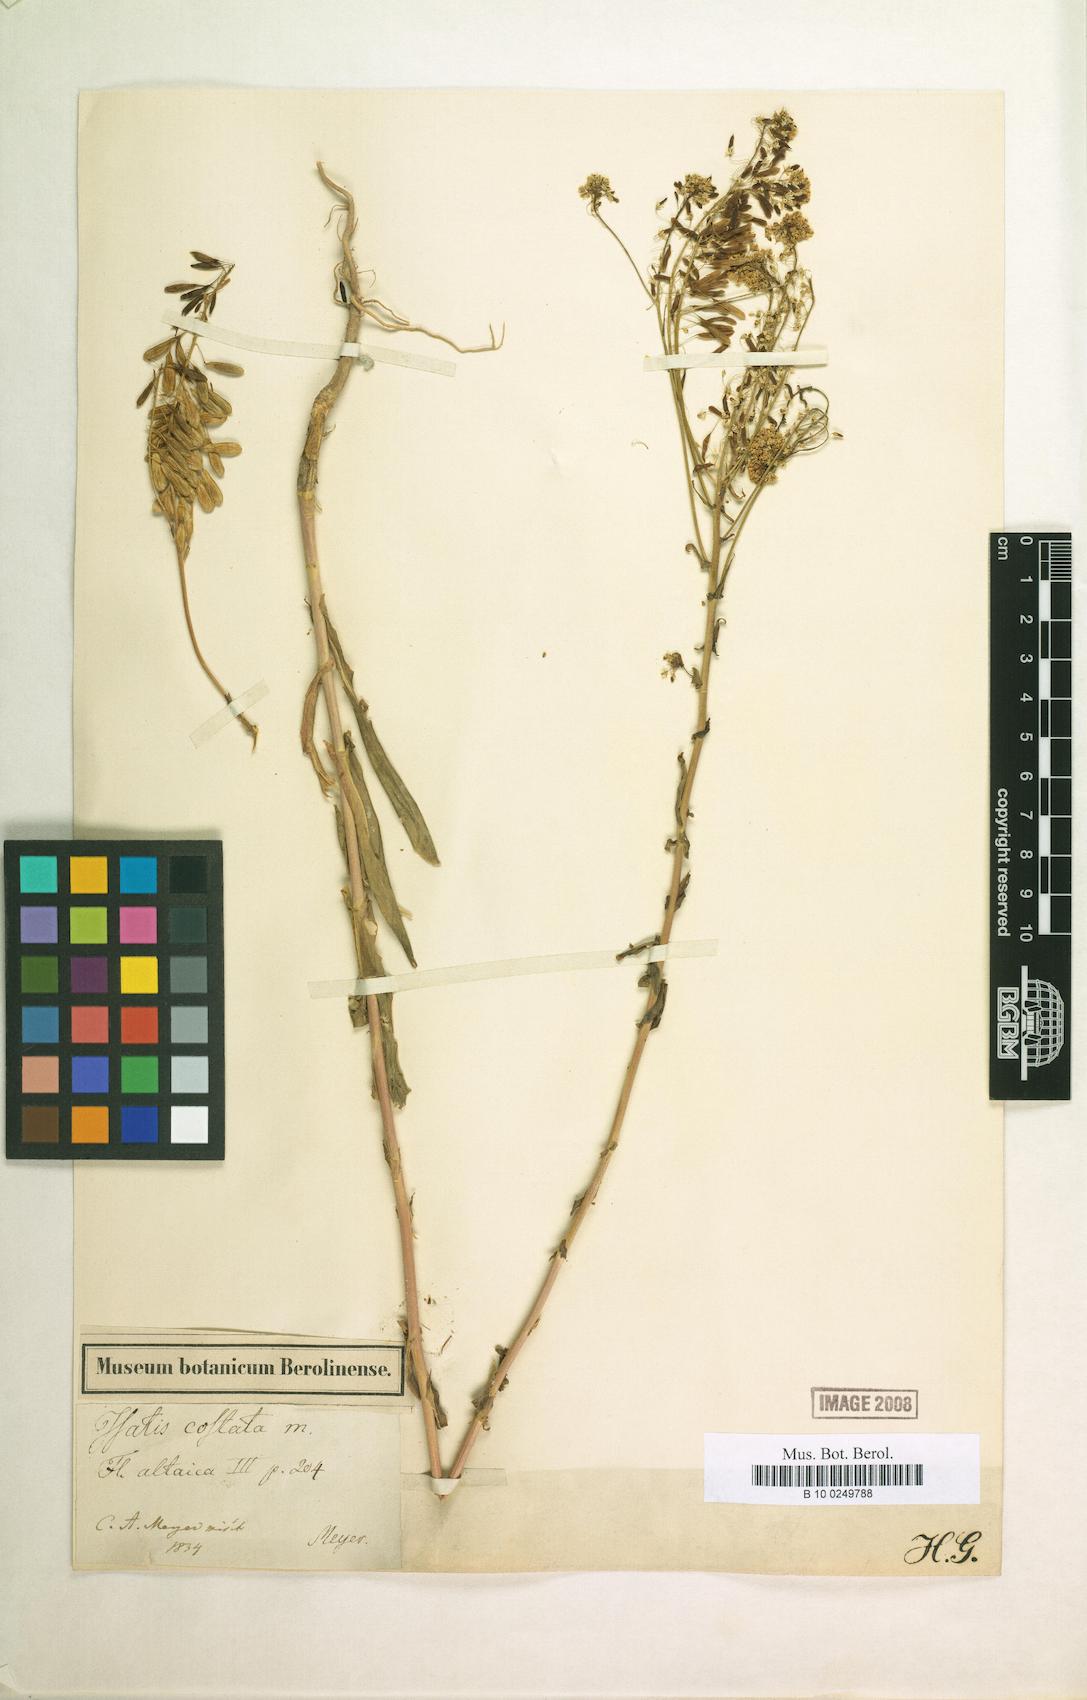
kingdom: Plantae
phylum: Tracheophyta
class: Magnoliopsida
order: Brassicales
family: Brassicaceae
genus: Isatis
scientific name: Isatis costata
